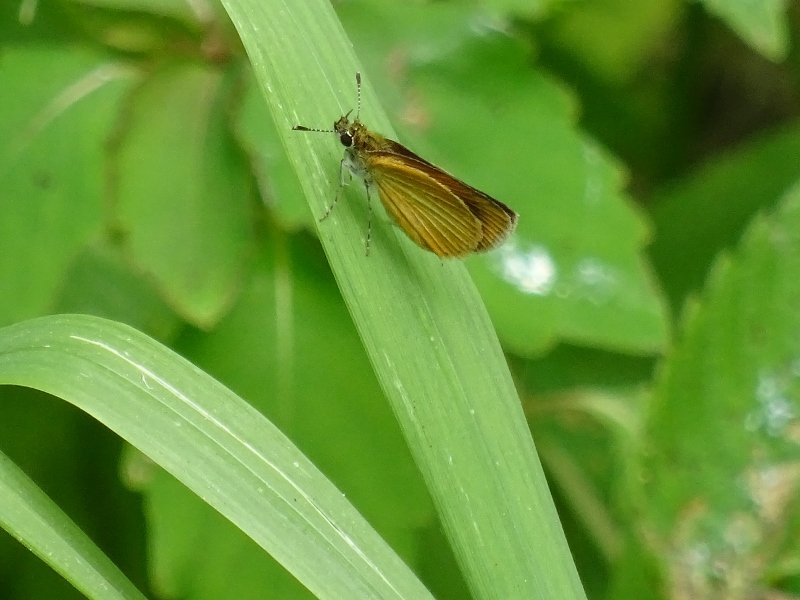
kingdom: Animalia
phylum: Arthropoda
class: Insecta
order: Lepidoptera
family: Hesperiidae
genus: Ancyloxypha
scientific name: Ancyloxypha numitor
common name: Least Skipper
